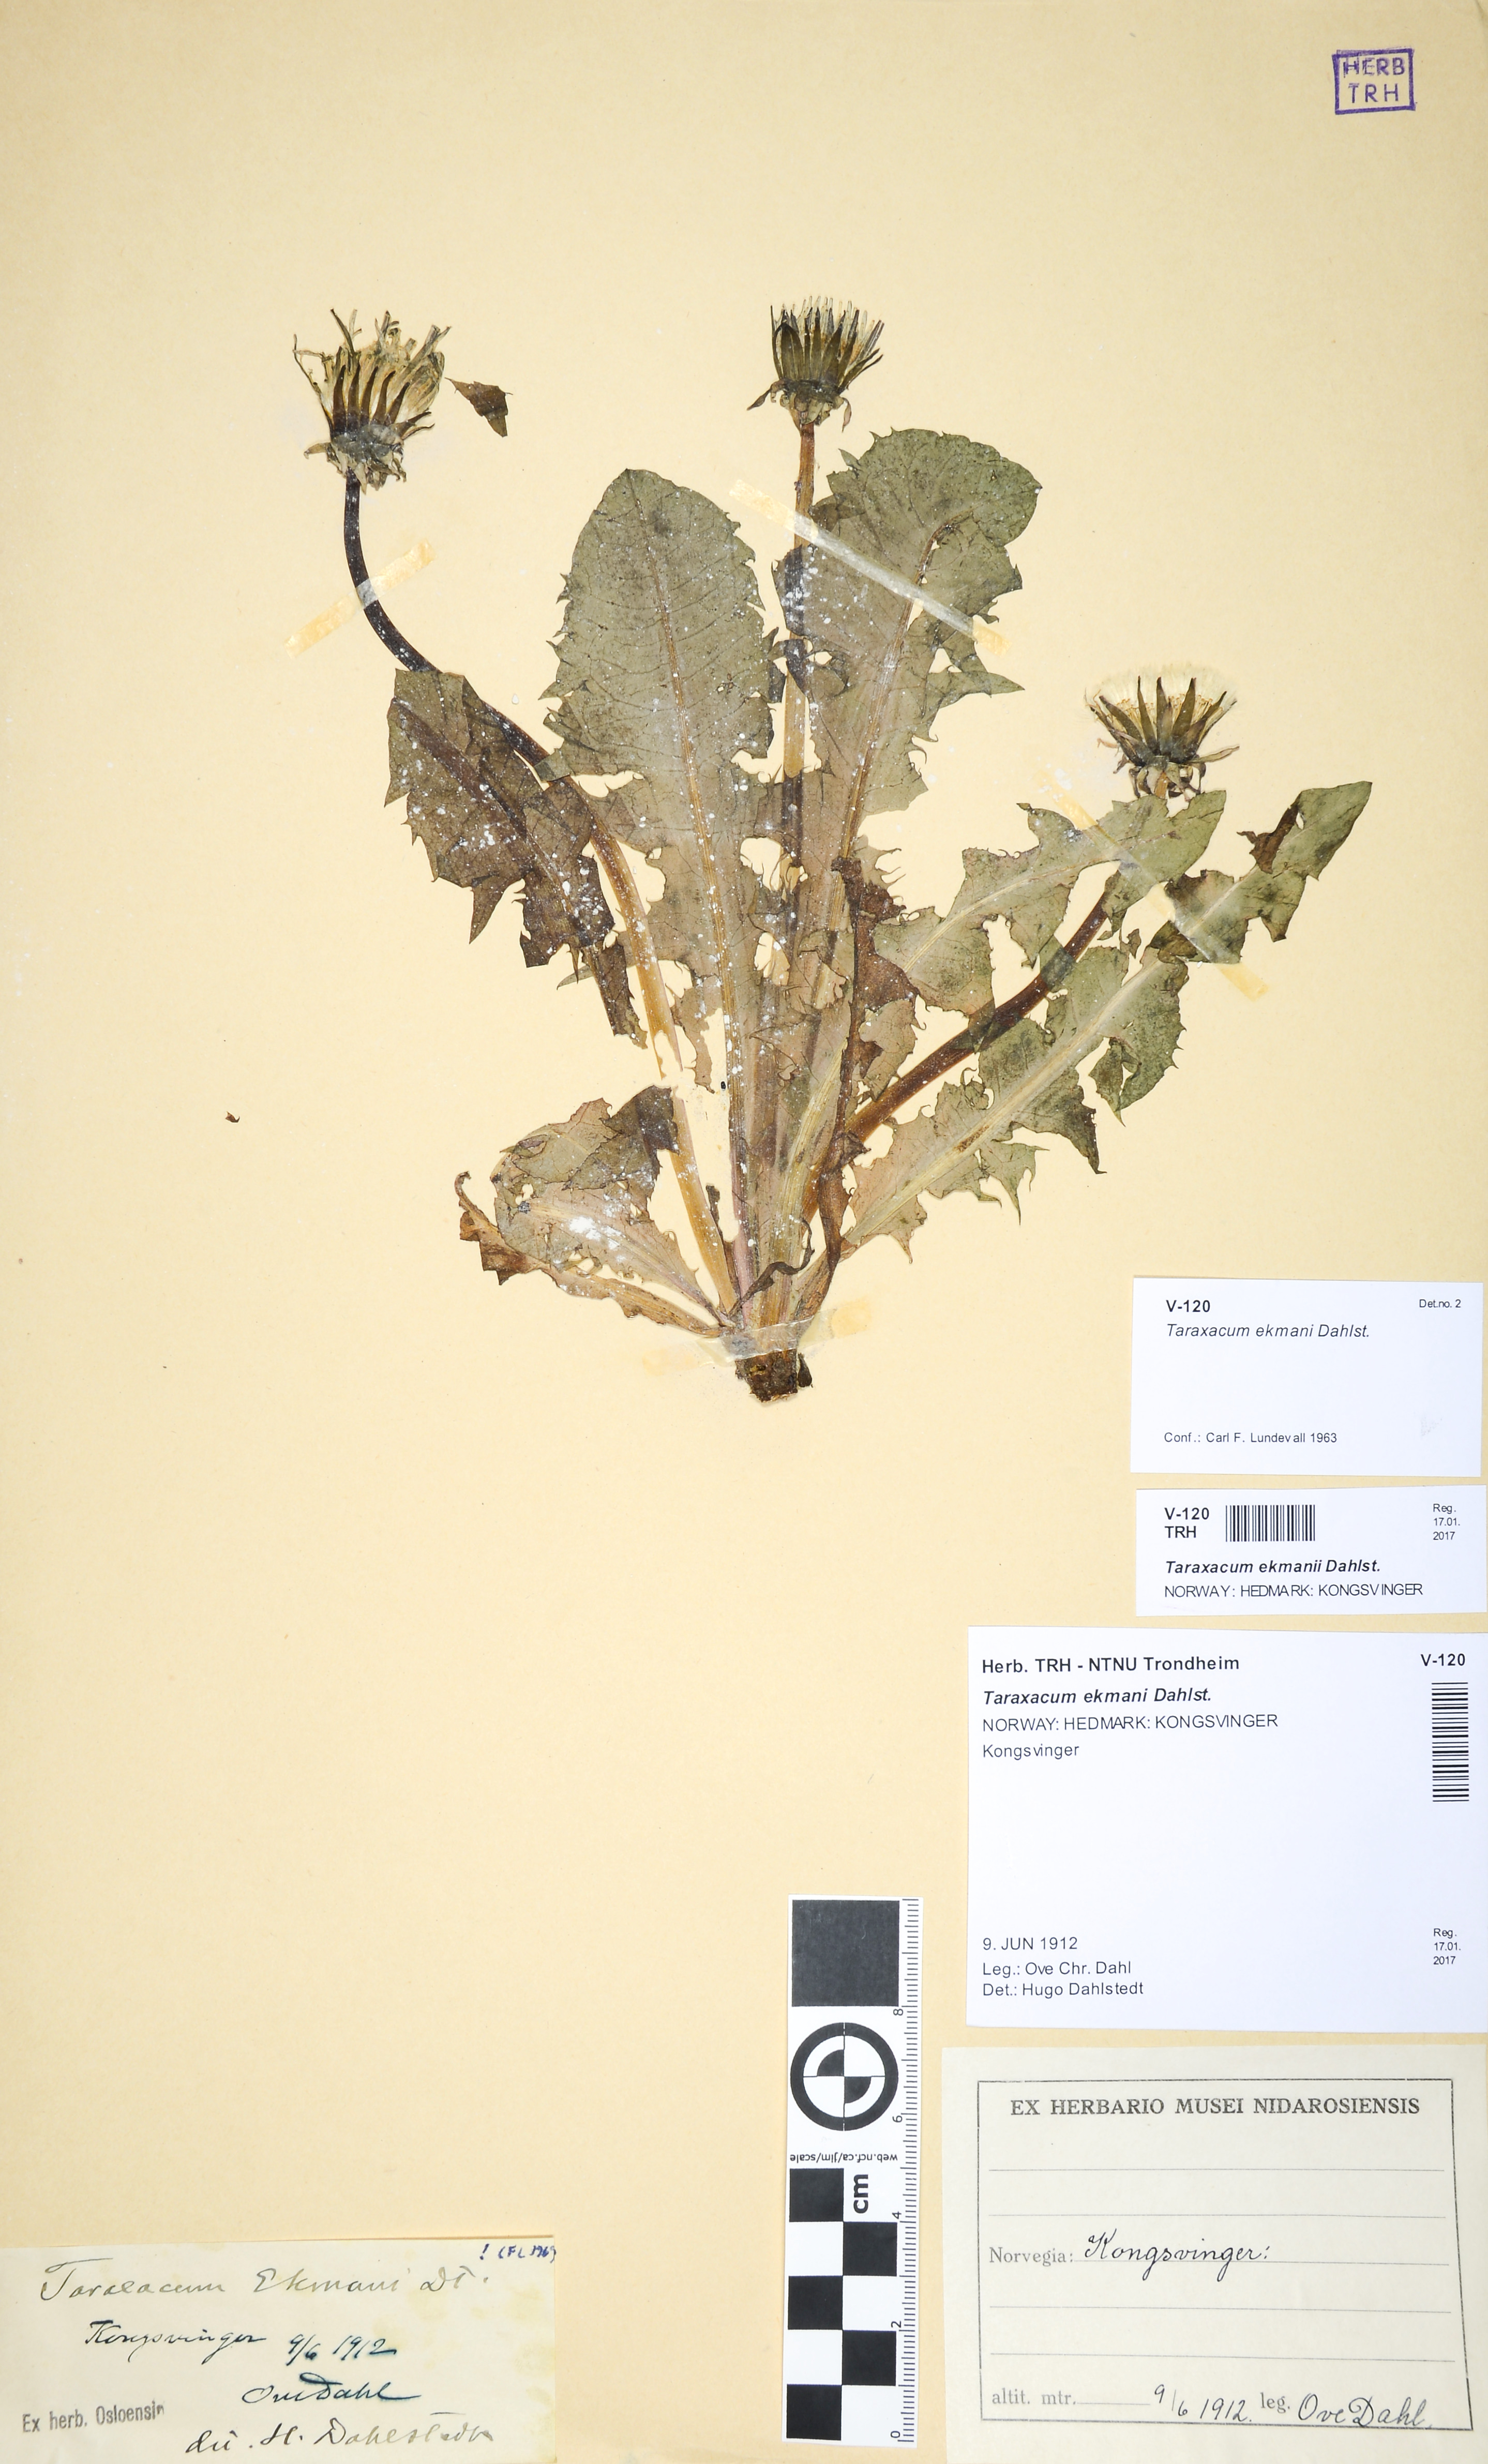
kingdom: Plantae
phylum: Tracheophyta
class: Magnoliopsida
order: Asterales
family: Asteraceae
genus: Taraxacum
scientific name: Taraxacum ekmanii
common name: Ekman's dandelion
